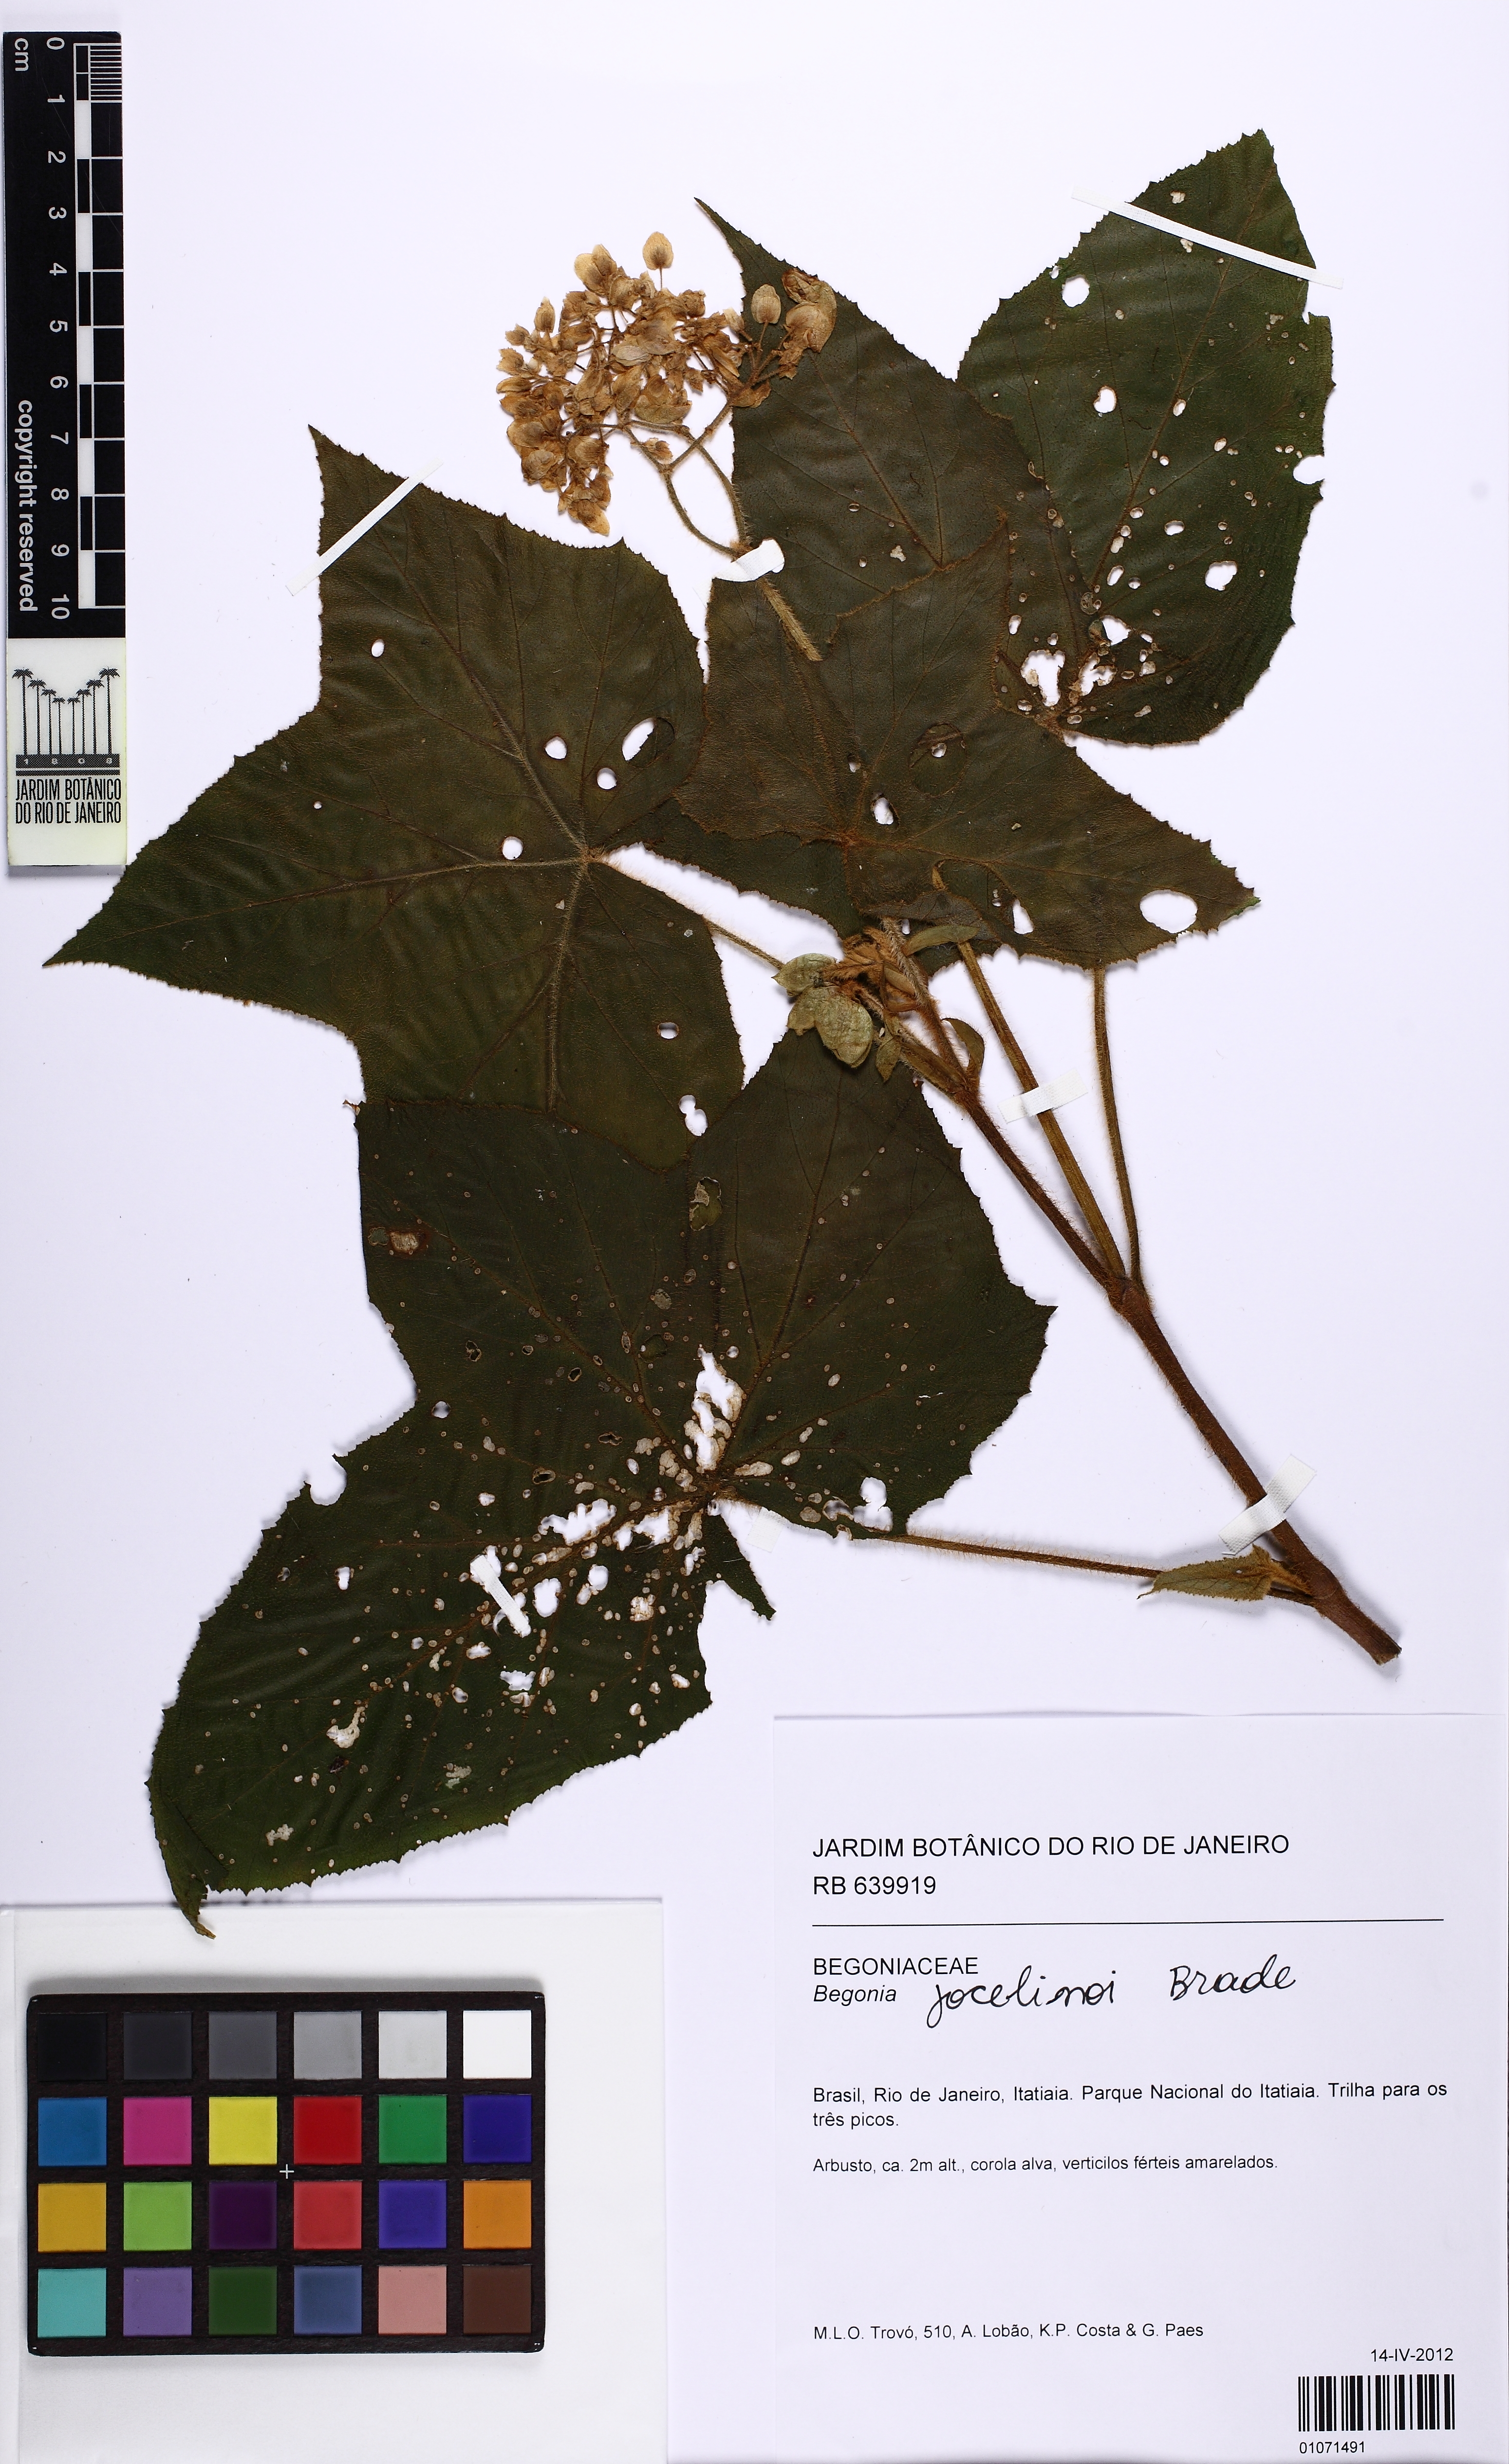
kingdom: Plantae
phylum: Tracheophyta
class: Magnoliopsida
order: Cucurbitales
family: Begoniaceae
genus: Begonia
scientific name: Begonia jocelinoi
